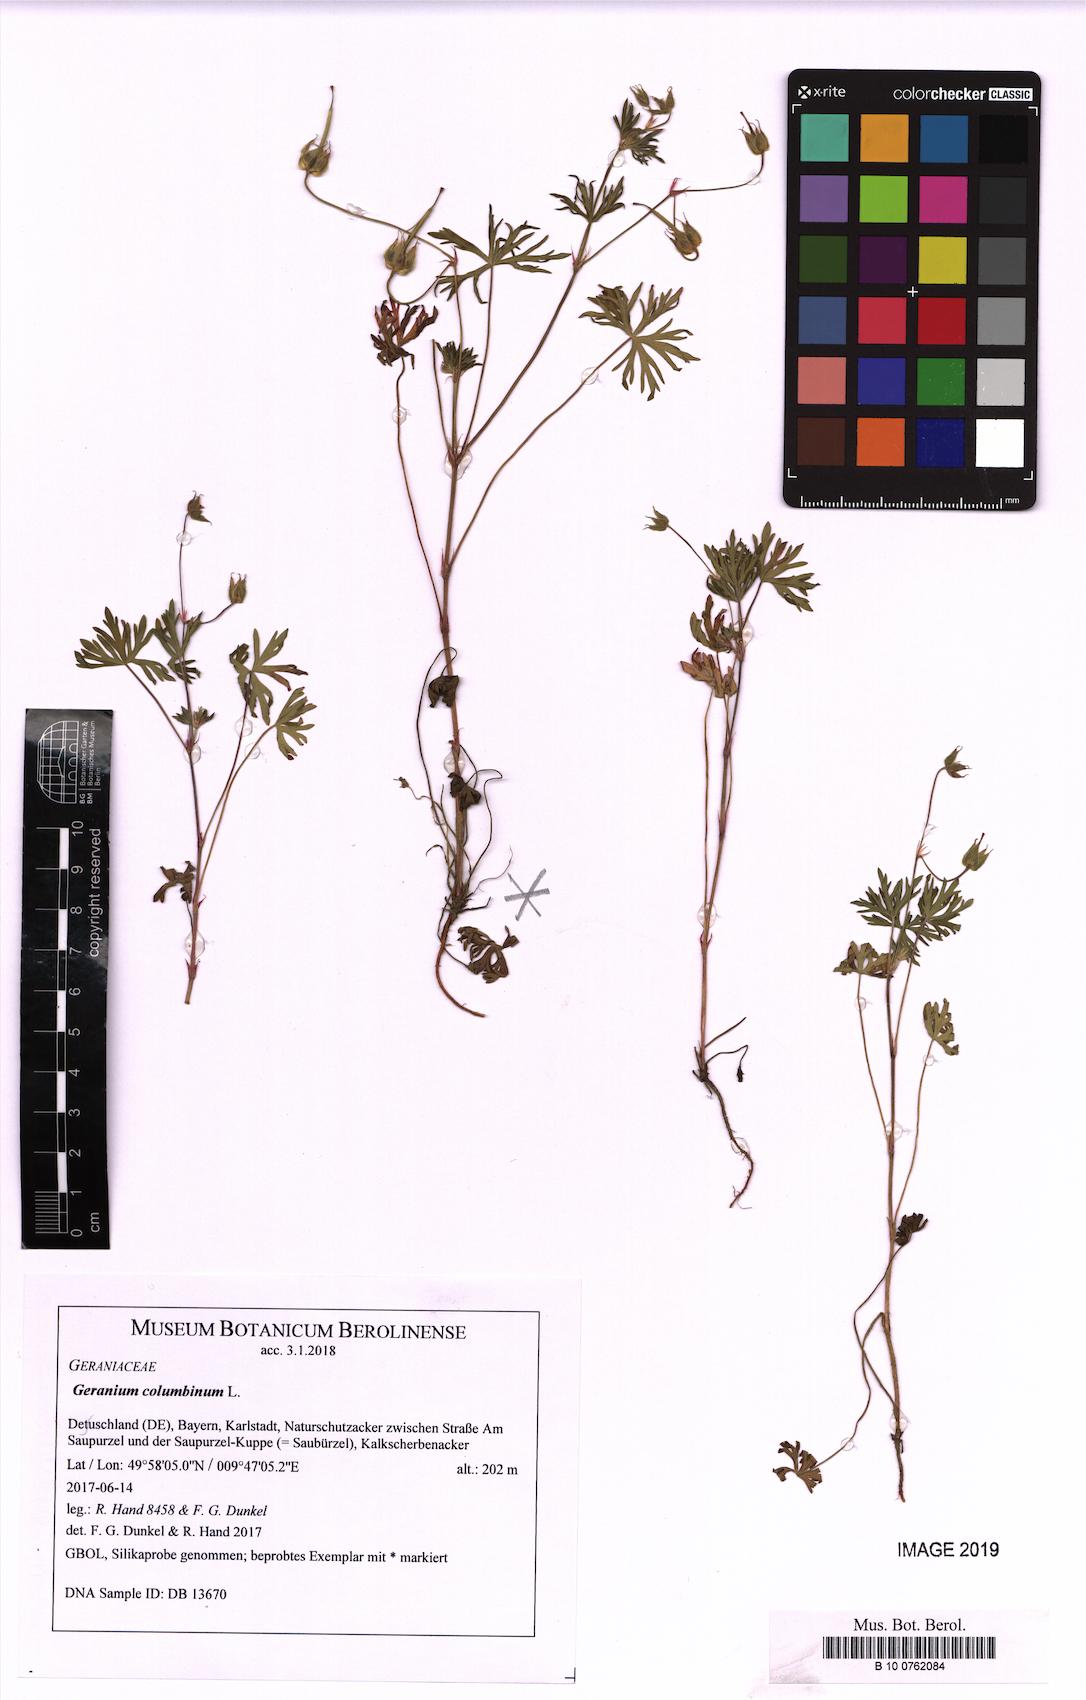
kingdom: Plantae
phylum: Tracheophyta
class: Magnoliopsida
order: Geraniales
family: Geraniaceae
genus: Geranium
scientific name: Geranium columbinum
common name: Long-stalked crane's-bill
